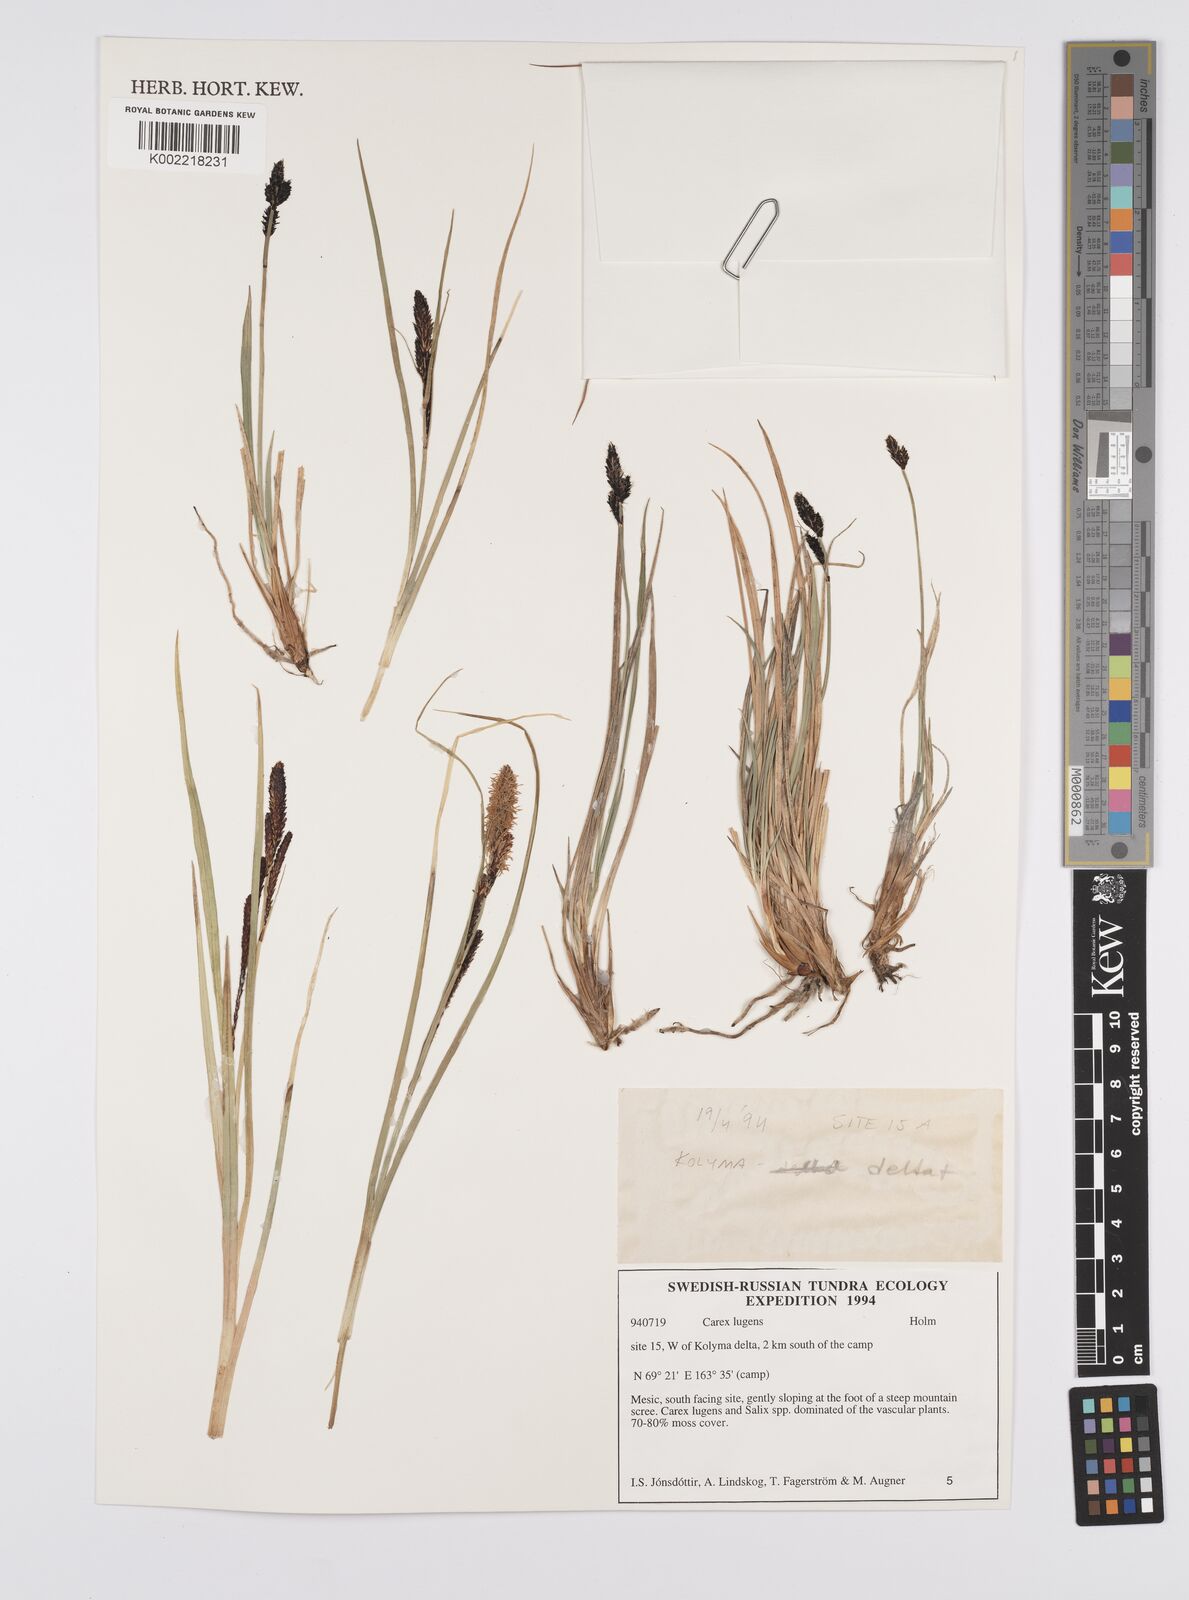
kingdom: Plantae
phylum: Tracheophyta
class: Liliopsida
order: Poales
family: Cyperaceae
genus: Carex
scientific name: Carex bigelowii
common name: Stiff sedge
